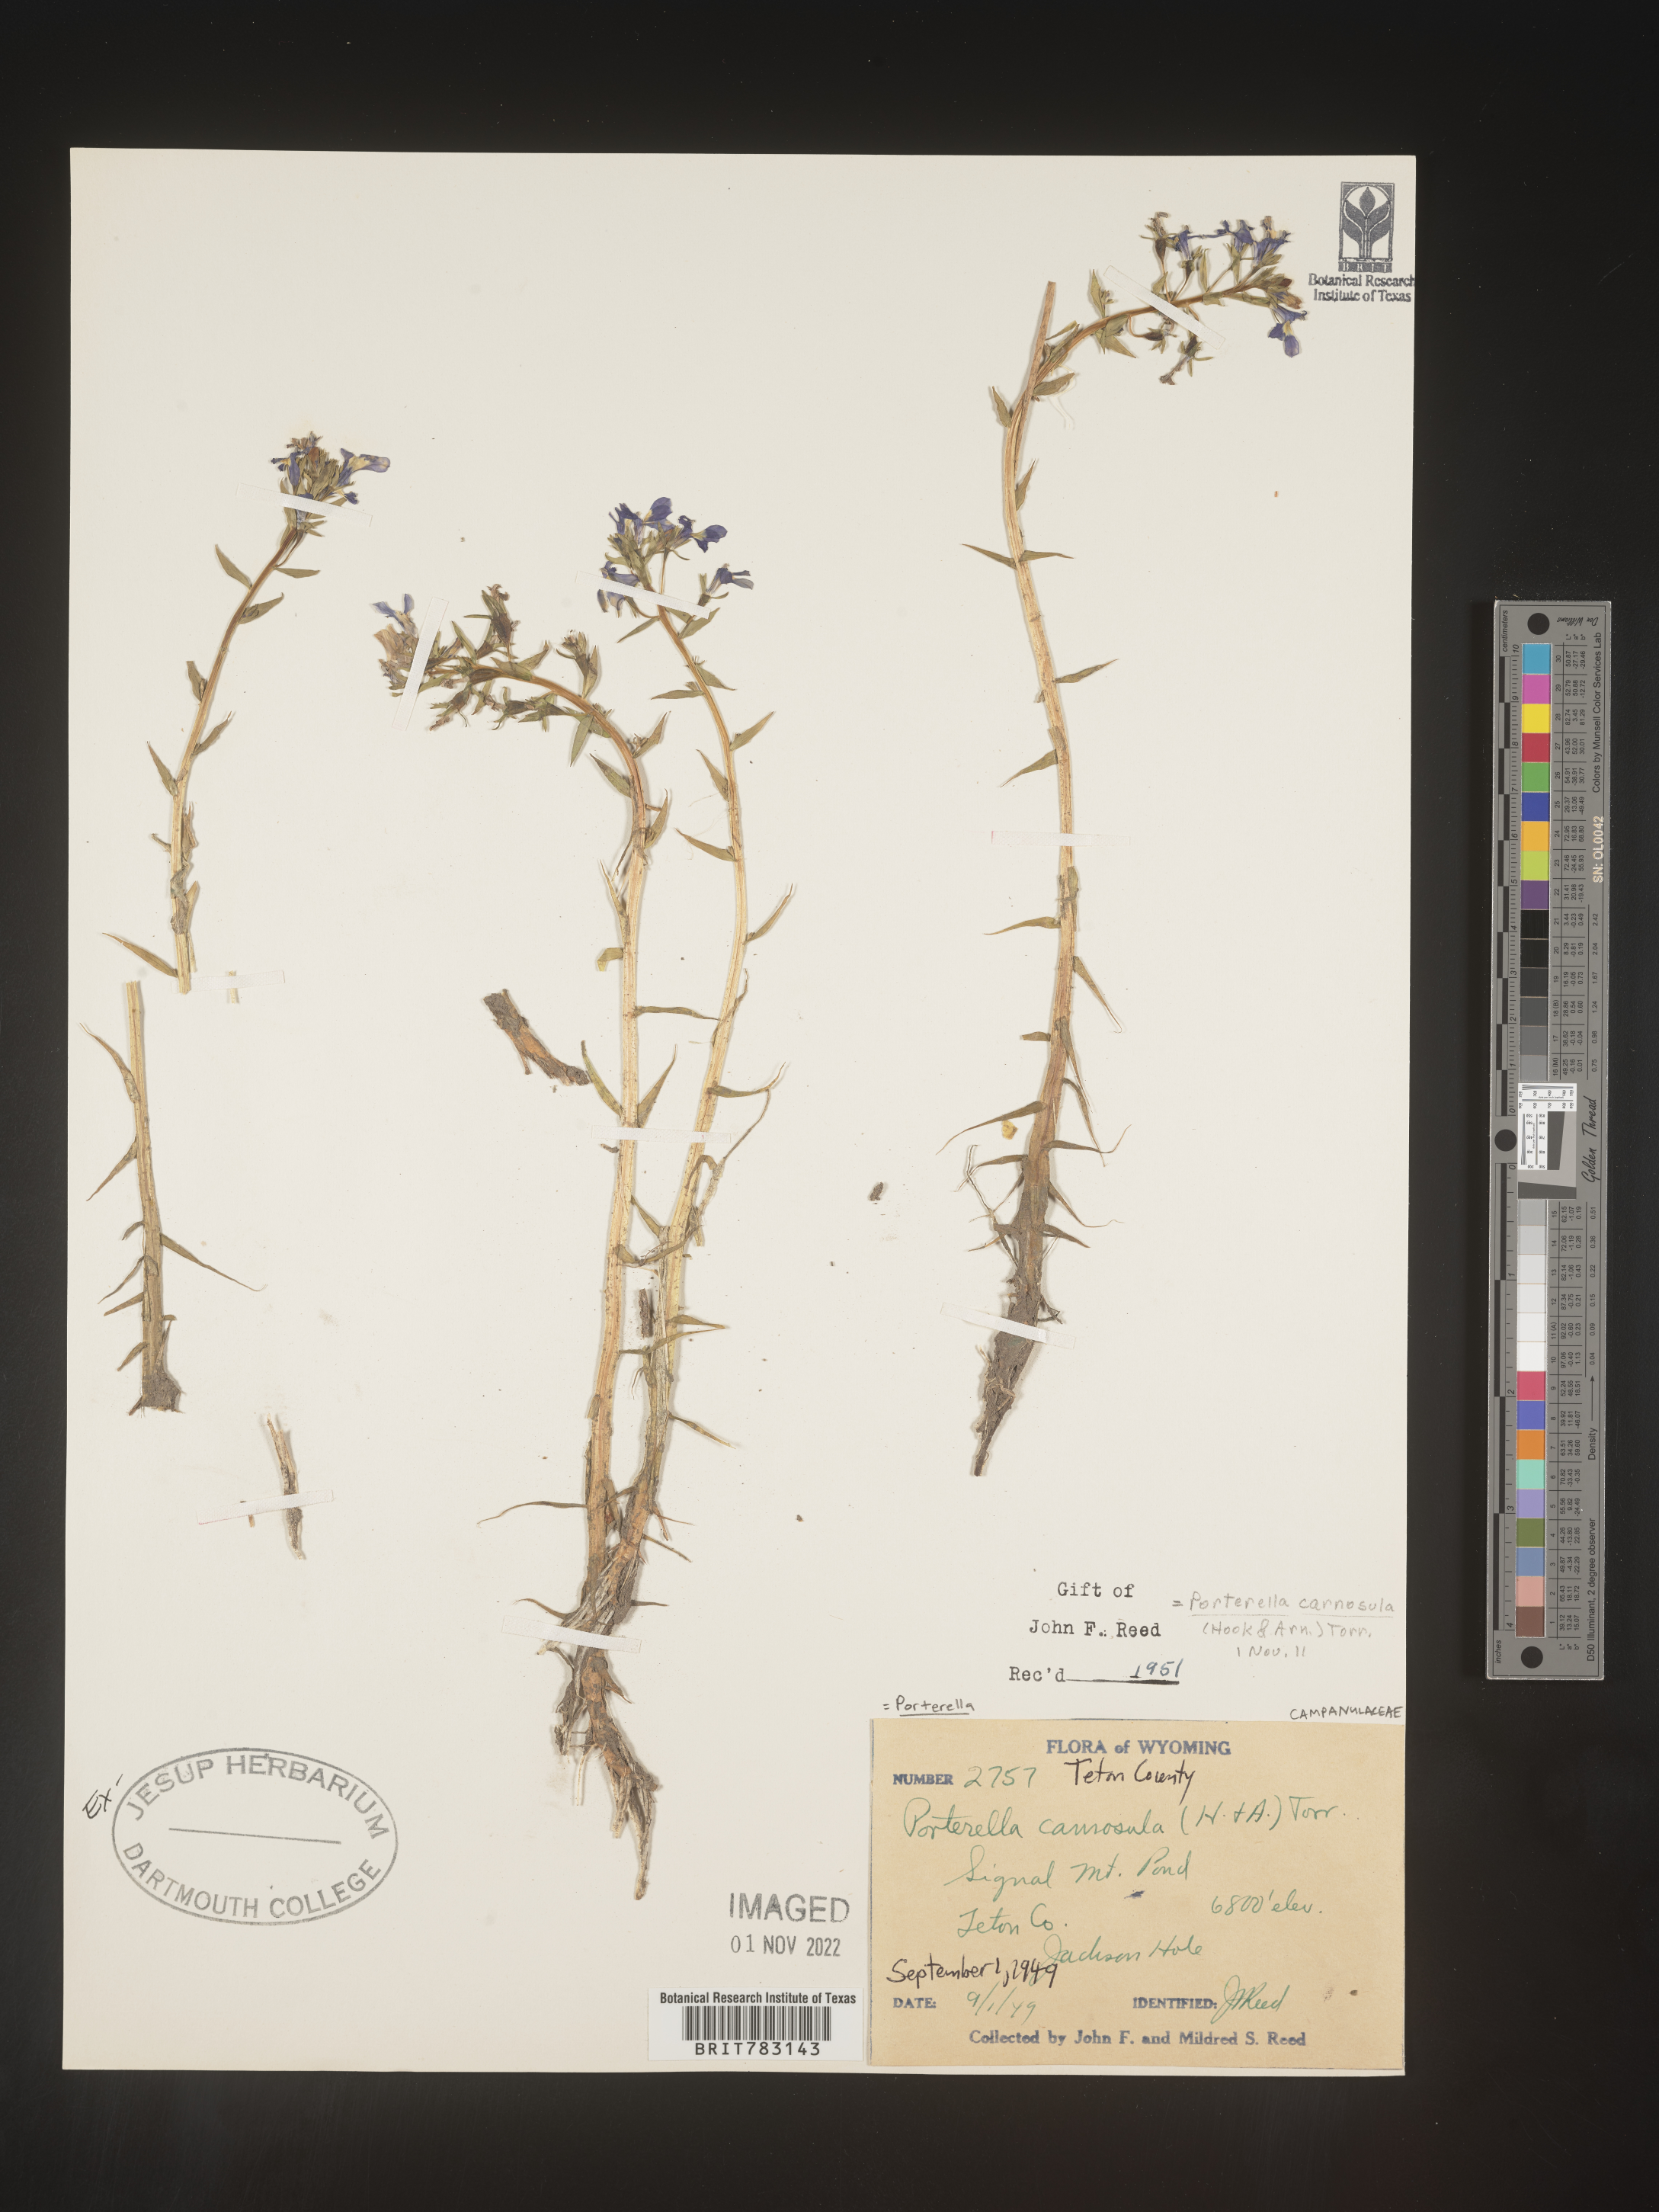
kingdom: Plantae
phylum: Tracheophyta
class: Magnoliopsida
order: Asterales
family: Campanulaceae
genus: Porterella
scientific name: Porterella
